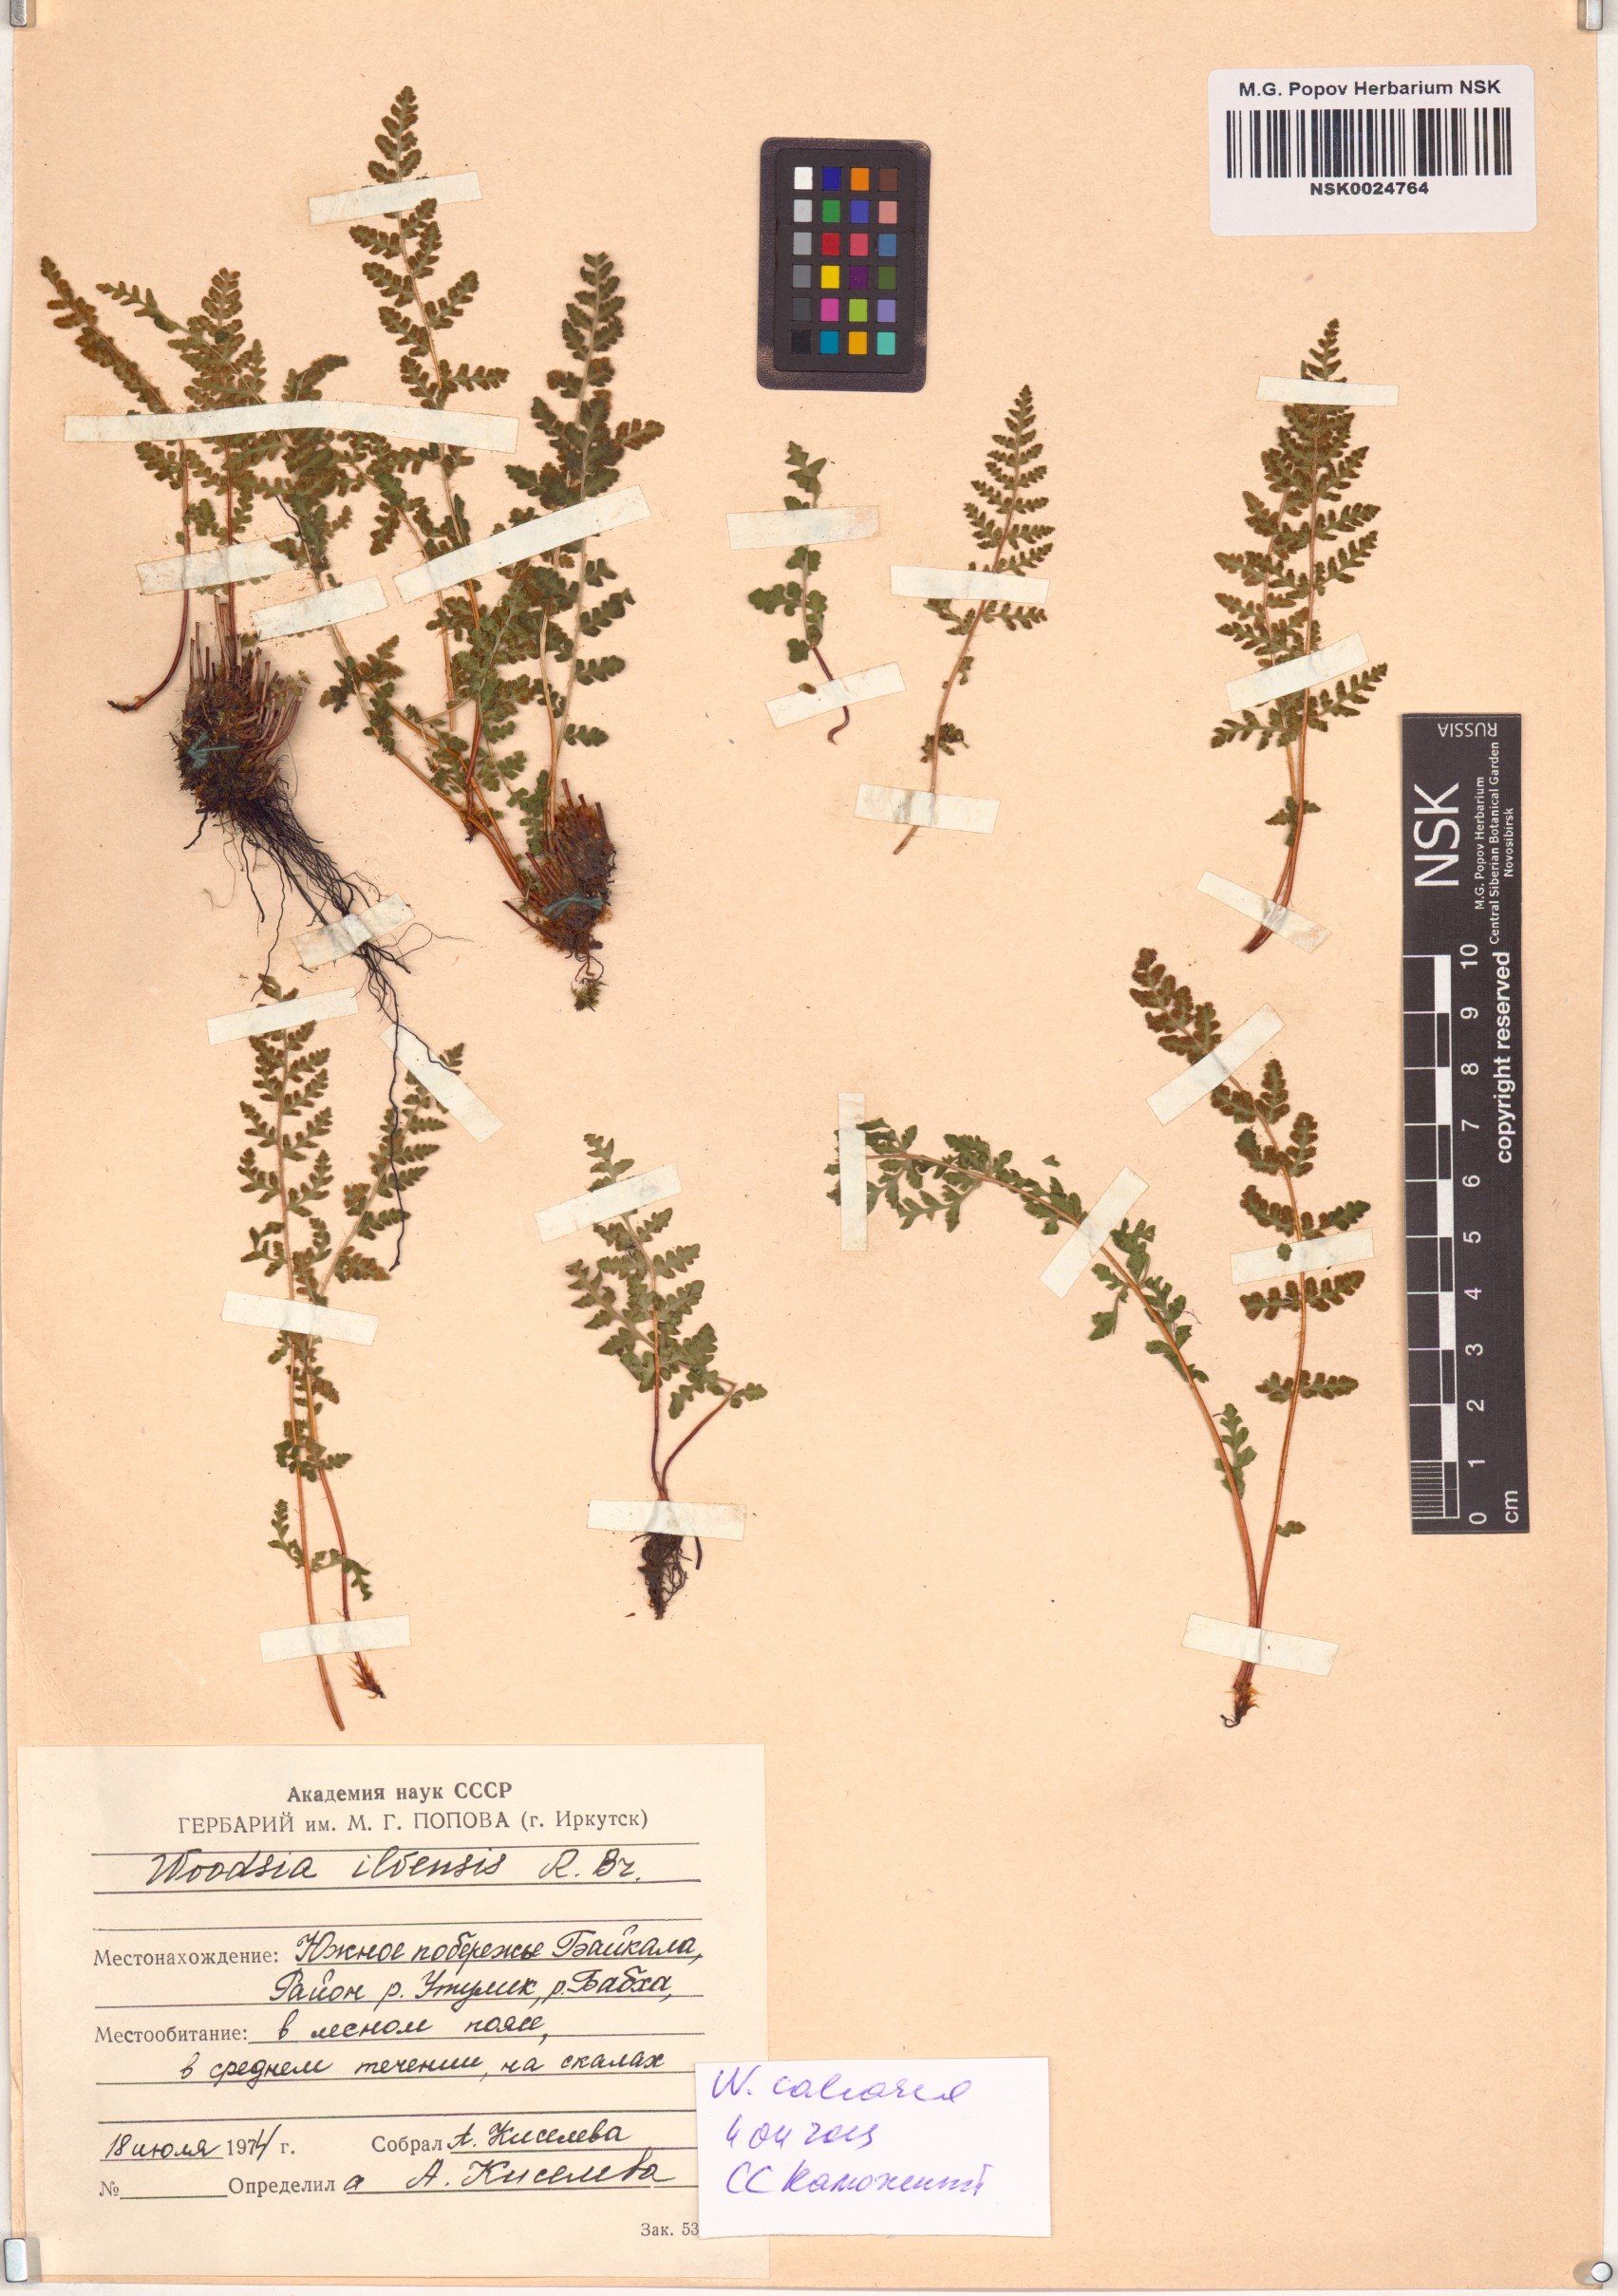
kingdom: Plantae
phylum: Tracheophyta
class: Polypodiopsida
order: Polypodiales
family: Woodsiaceae
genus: Woodsia
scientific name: Woodsia calcarea
